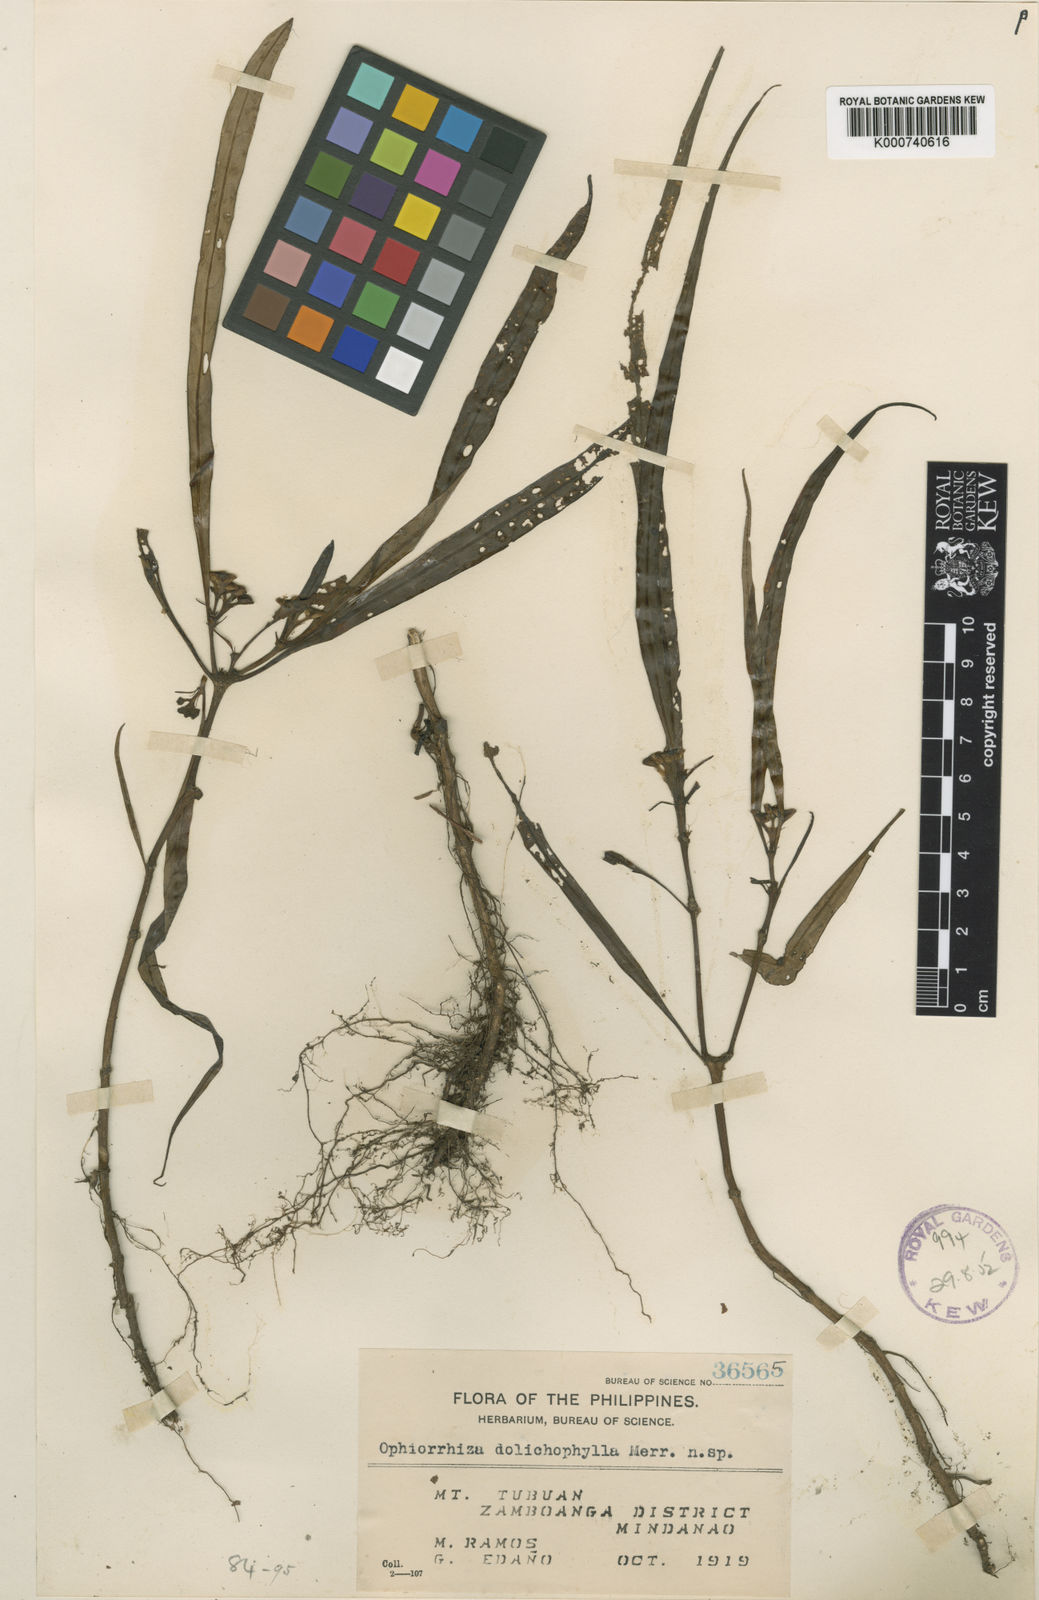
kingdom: Plantae
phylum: Tracheophyta
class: Magnoliopsida
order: Gentianales
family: Rubiaceae
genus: Ophiorrhiza
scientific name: Ophiorrhiza dolichophylla
